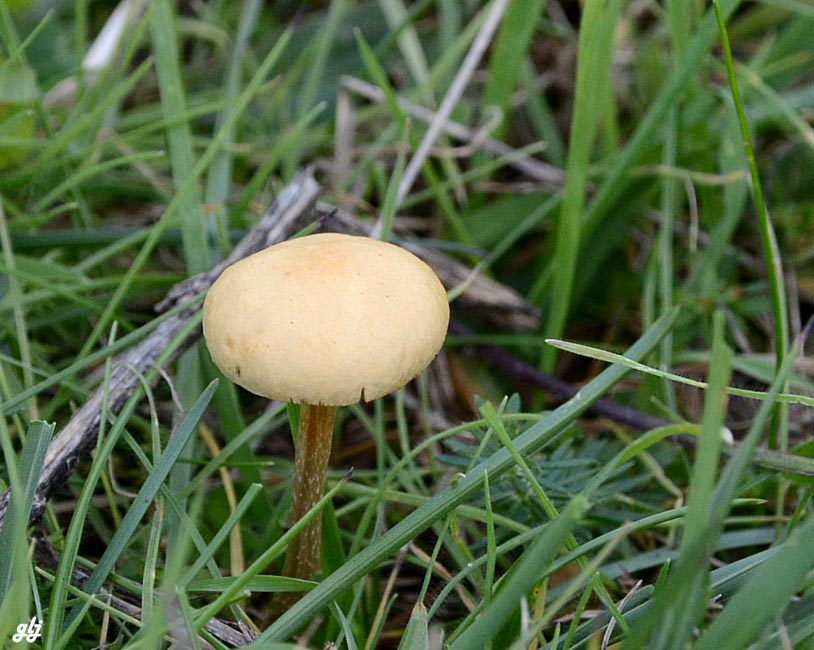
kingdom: Fungi
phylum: Basidiomycota
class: Agaricomycetes
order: Agaricales
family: Strophariaceae
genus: Agrocybe
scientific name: Agrocybe pediades
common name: almindelig agerhat
